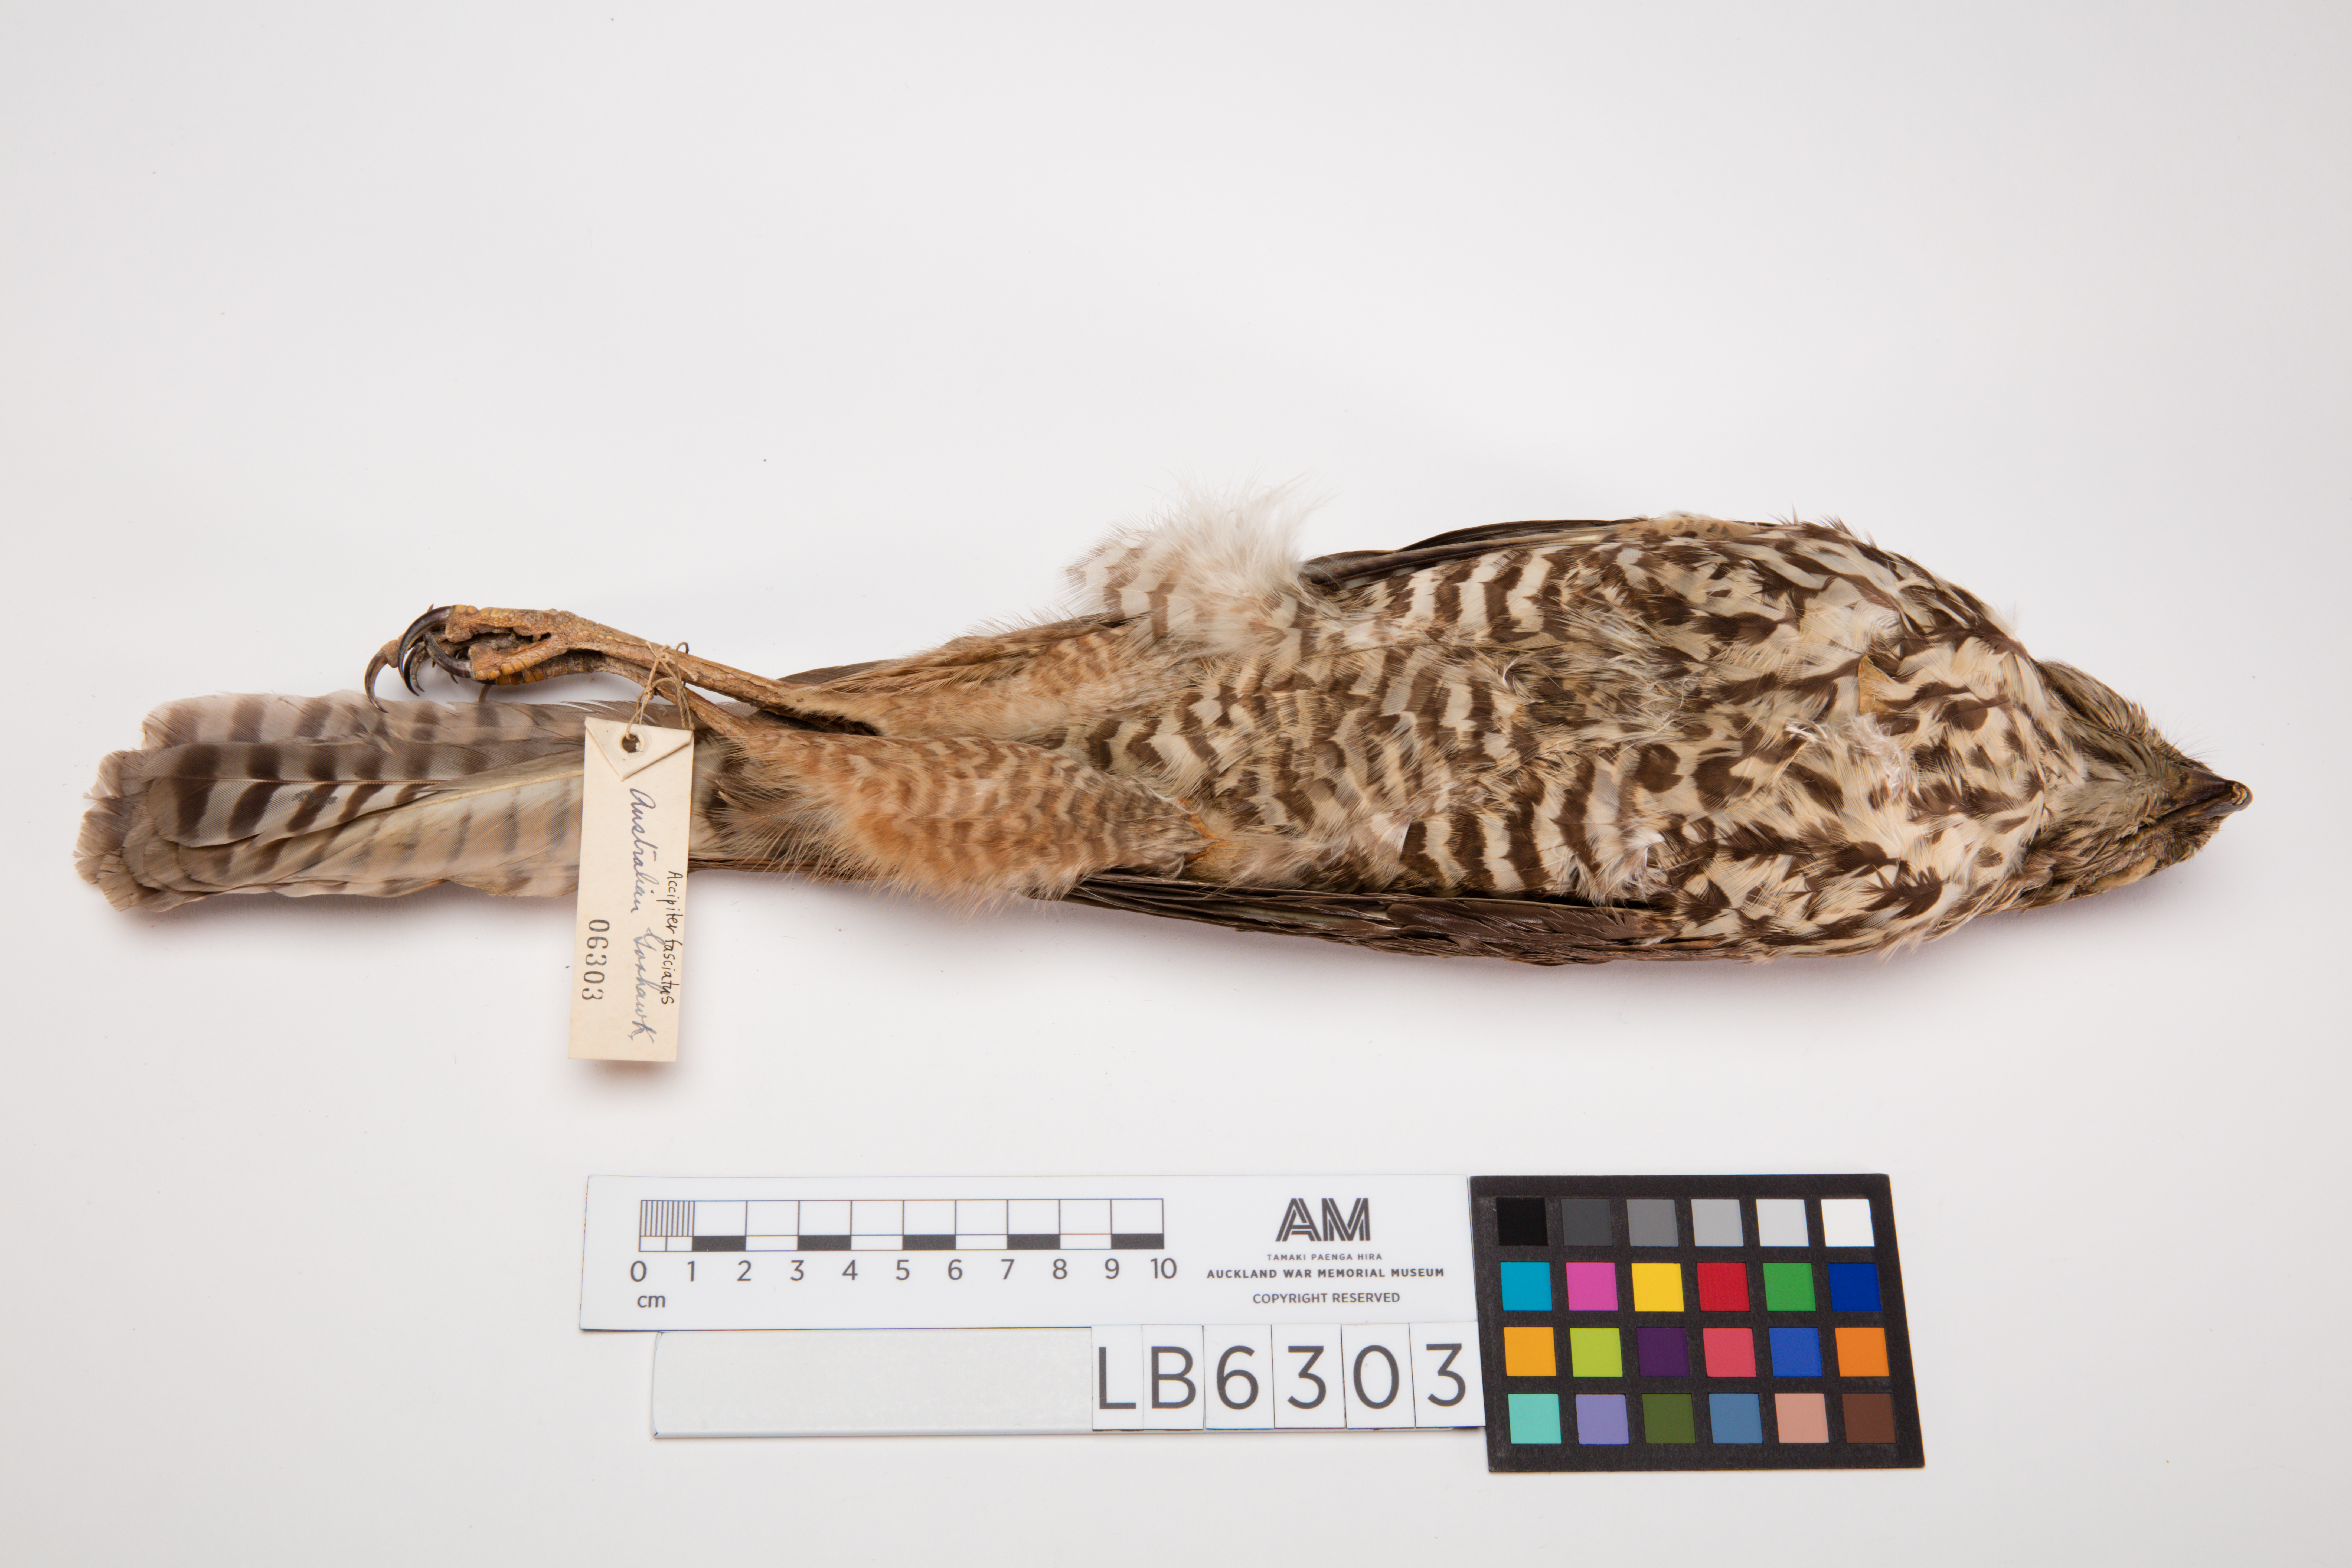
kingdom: Animalia
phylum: Chordata
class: Aves
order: Accipitriformes
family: Accipitridae
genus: Accipiter
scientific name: Accipiter fasciatus
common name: Brown goshawk
